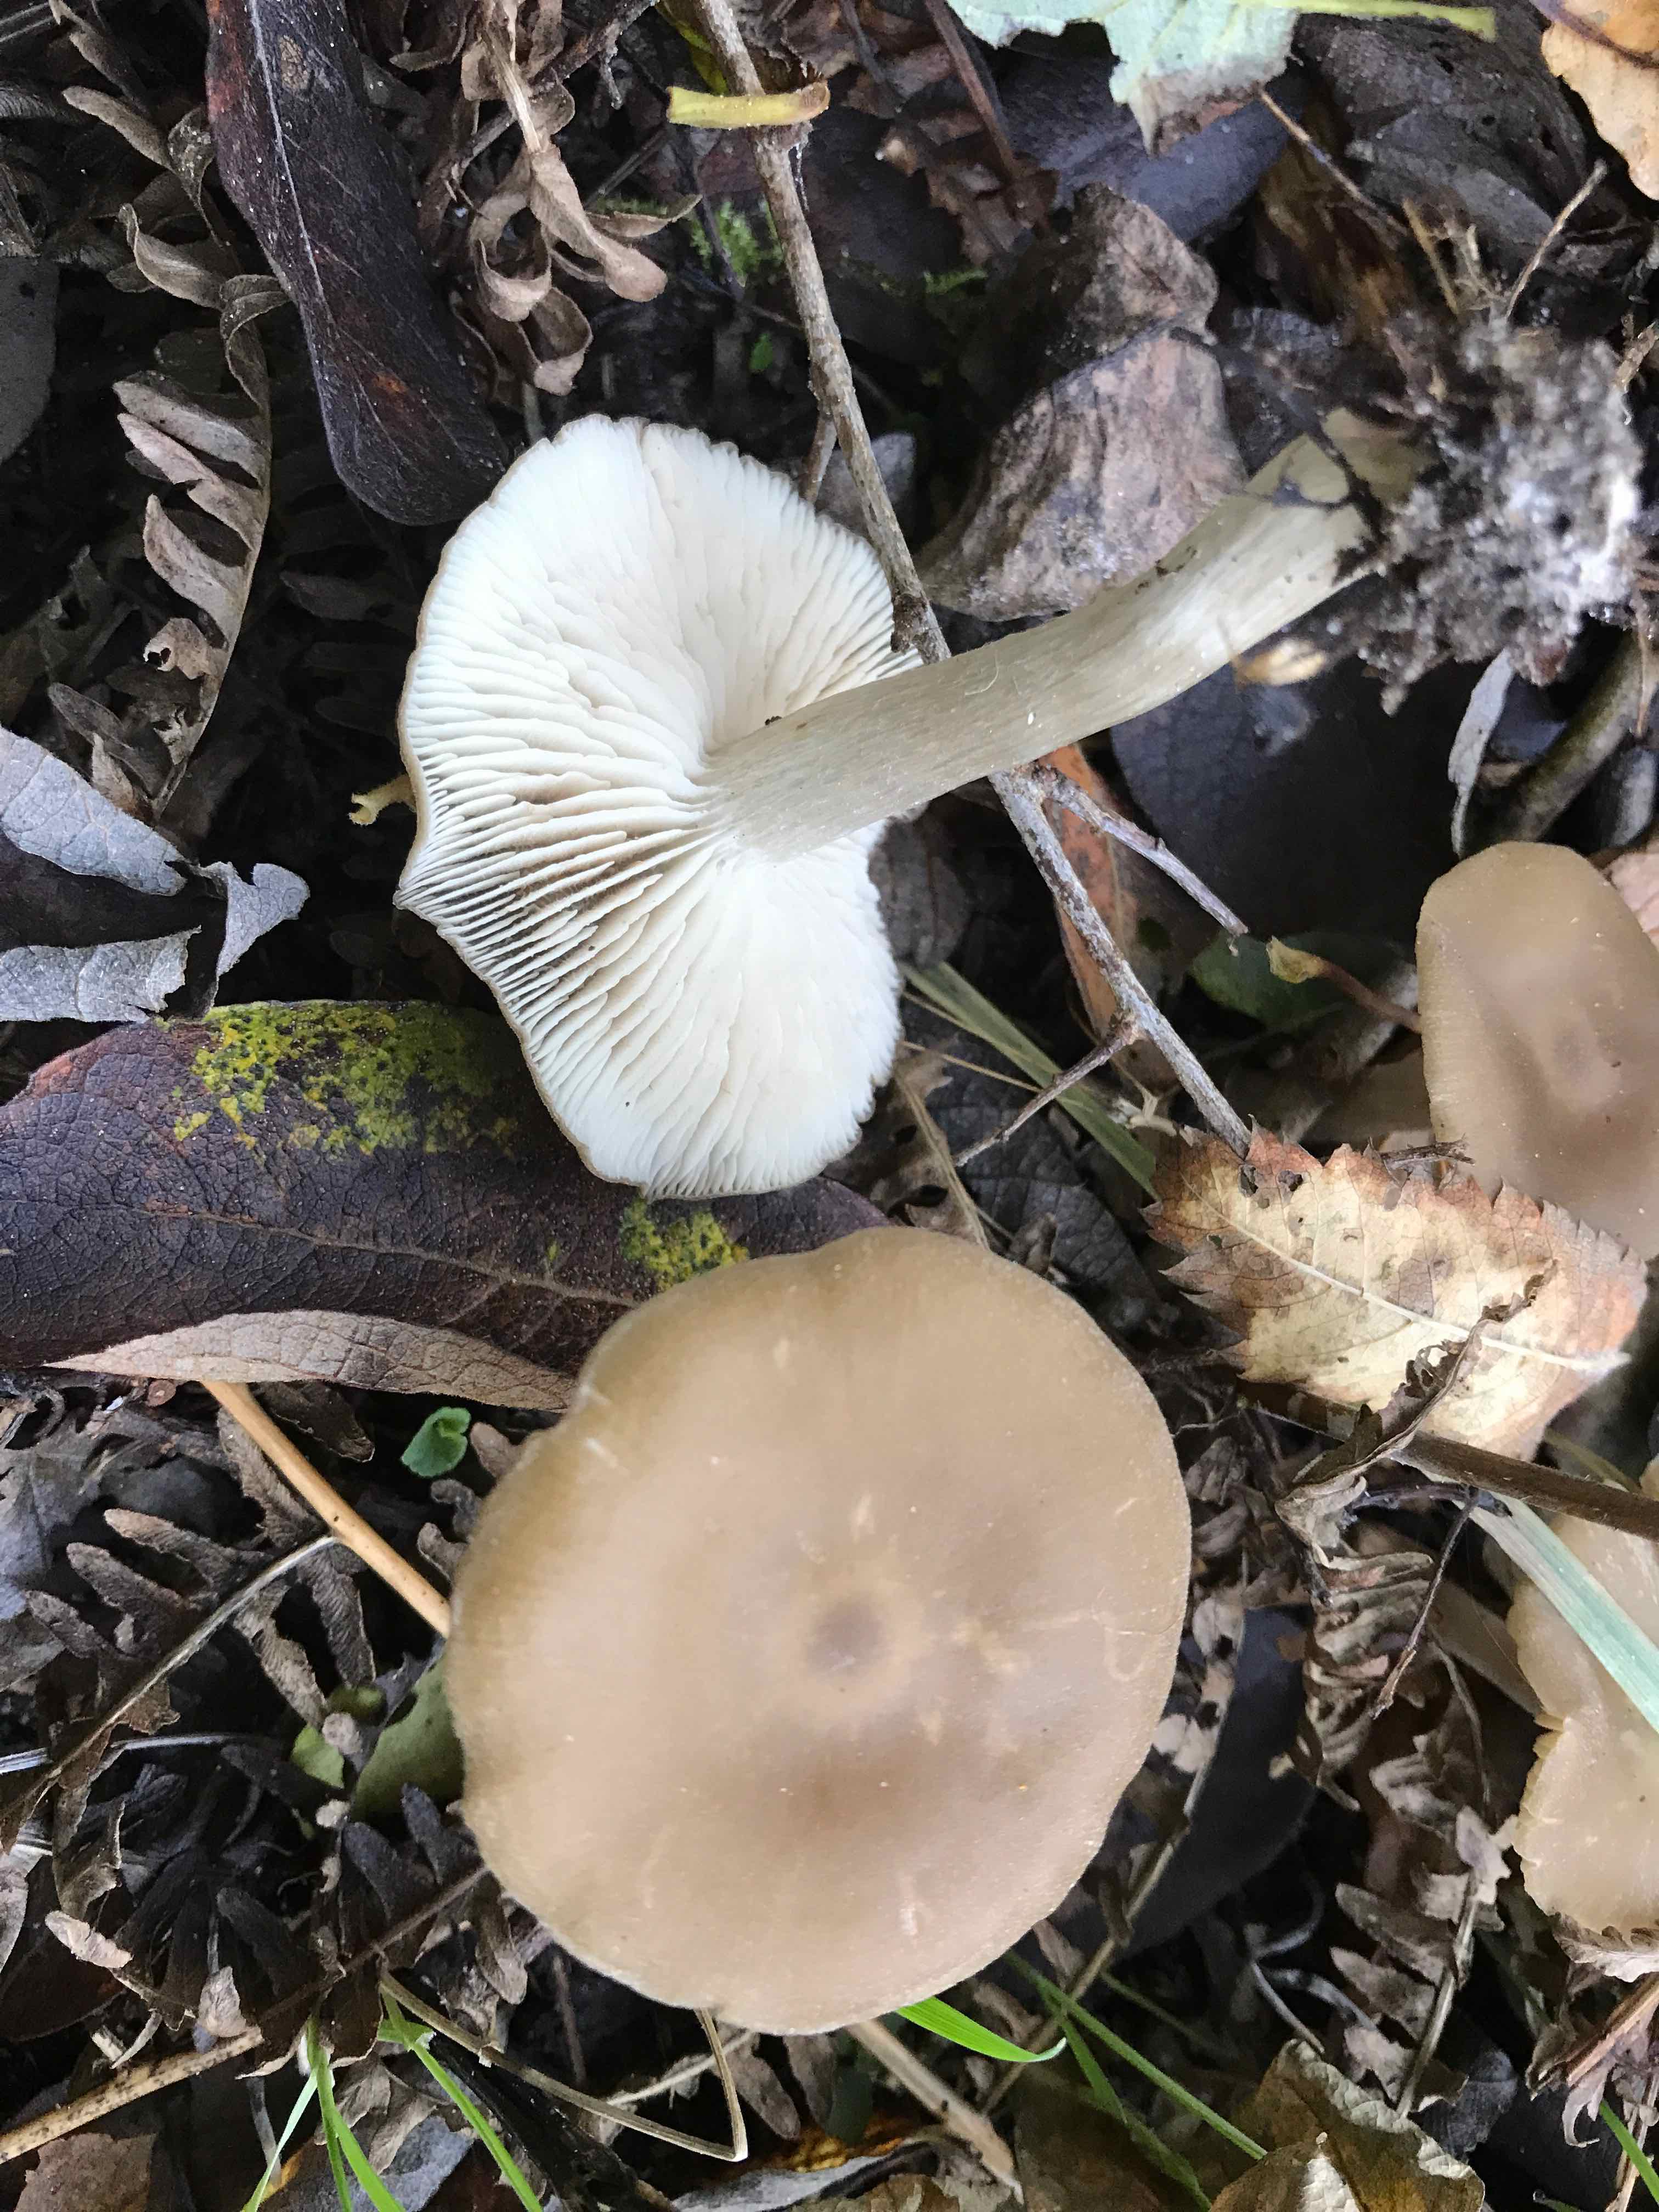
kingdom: Fungi
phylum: Basidiomycota
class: Agaricomycetes
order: Agaricales
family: Entolomataceae
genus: Entoloma
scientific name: Entoloma rhodopolium
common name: skov-rødblad
